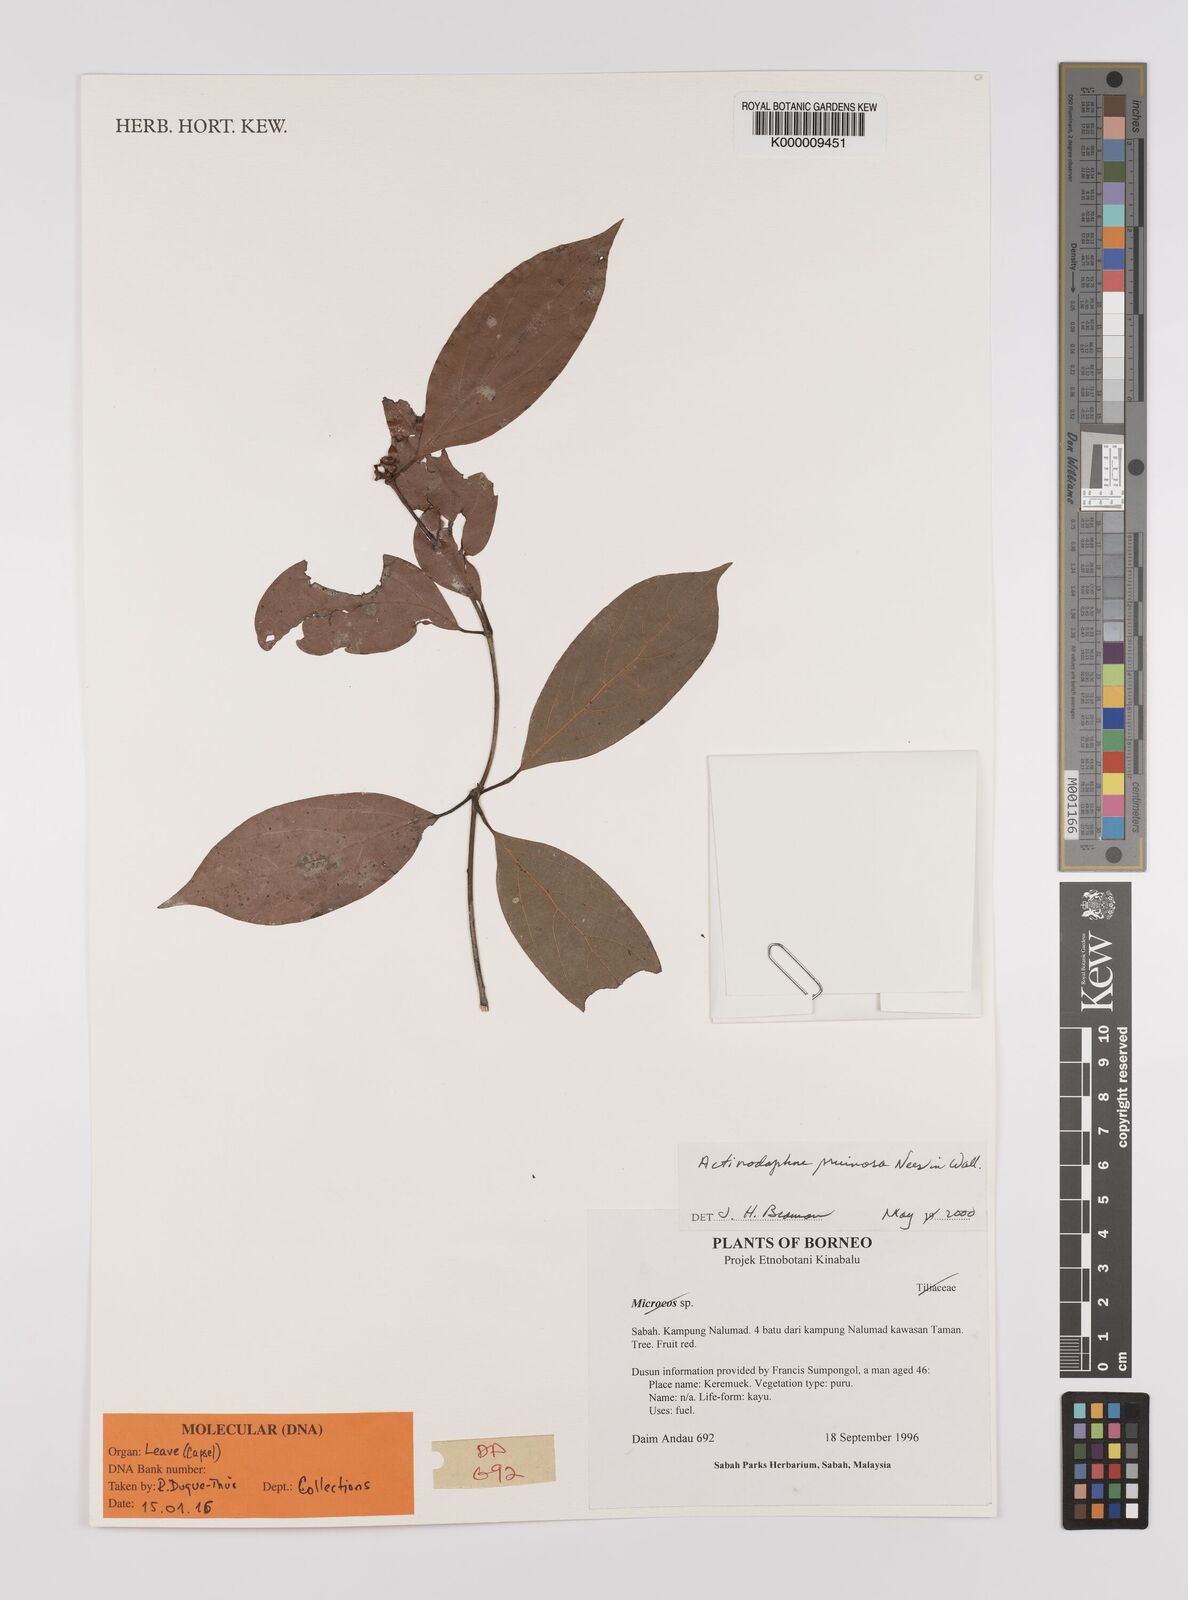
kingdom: Plantae
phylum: Tracheophyta
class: Magnoliopsida
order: Laurales
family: Lauraceae
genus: Actinodaphne
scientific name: Actinodaphne pruinosa
